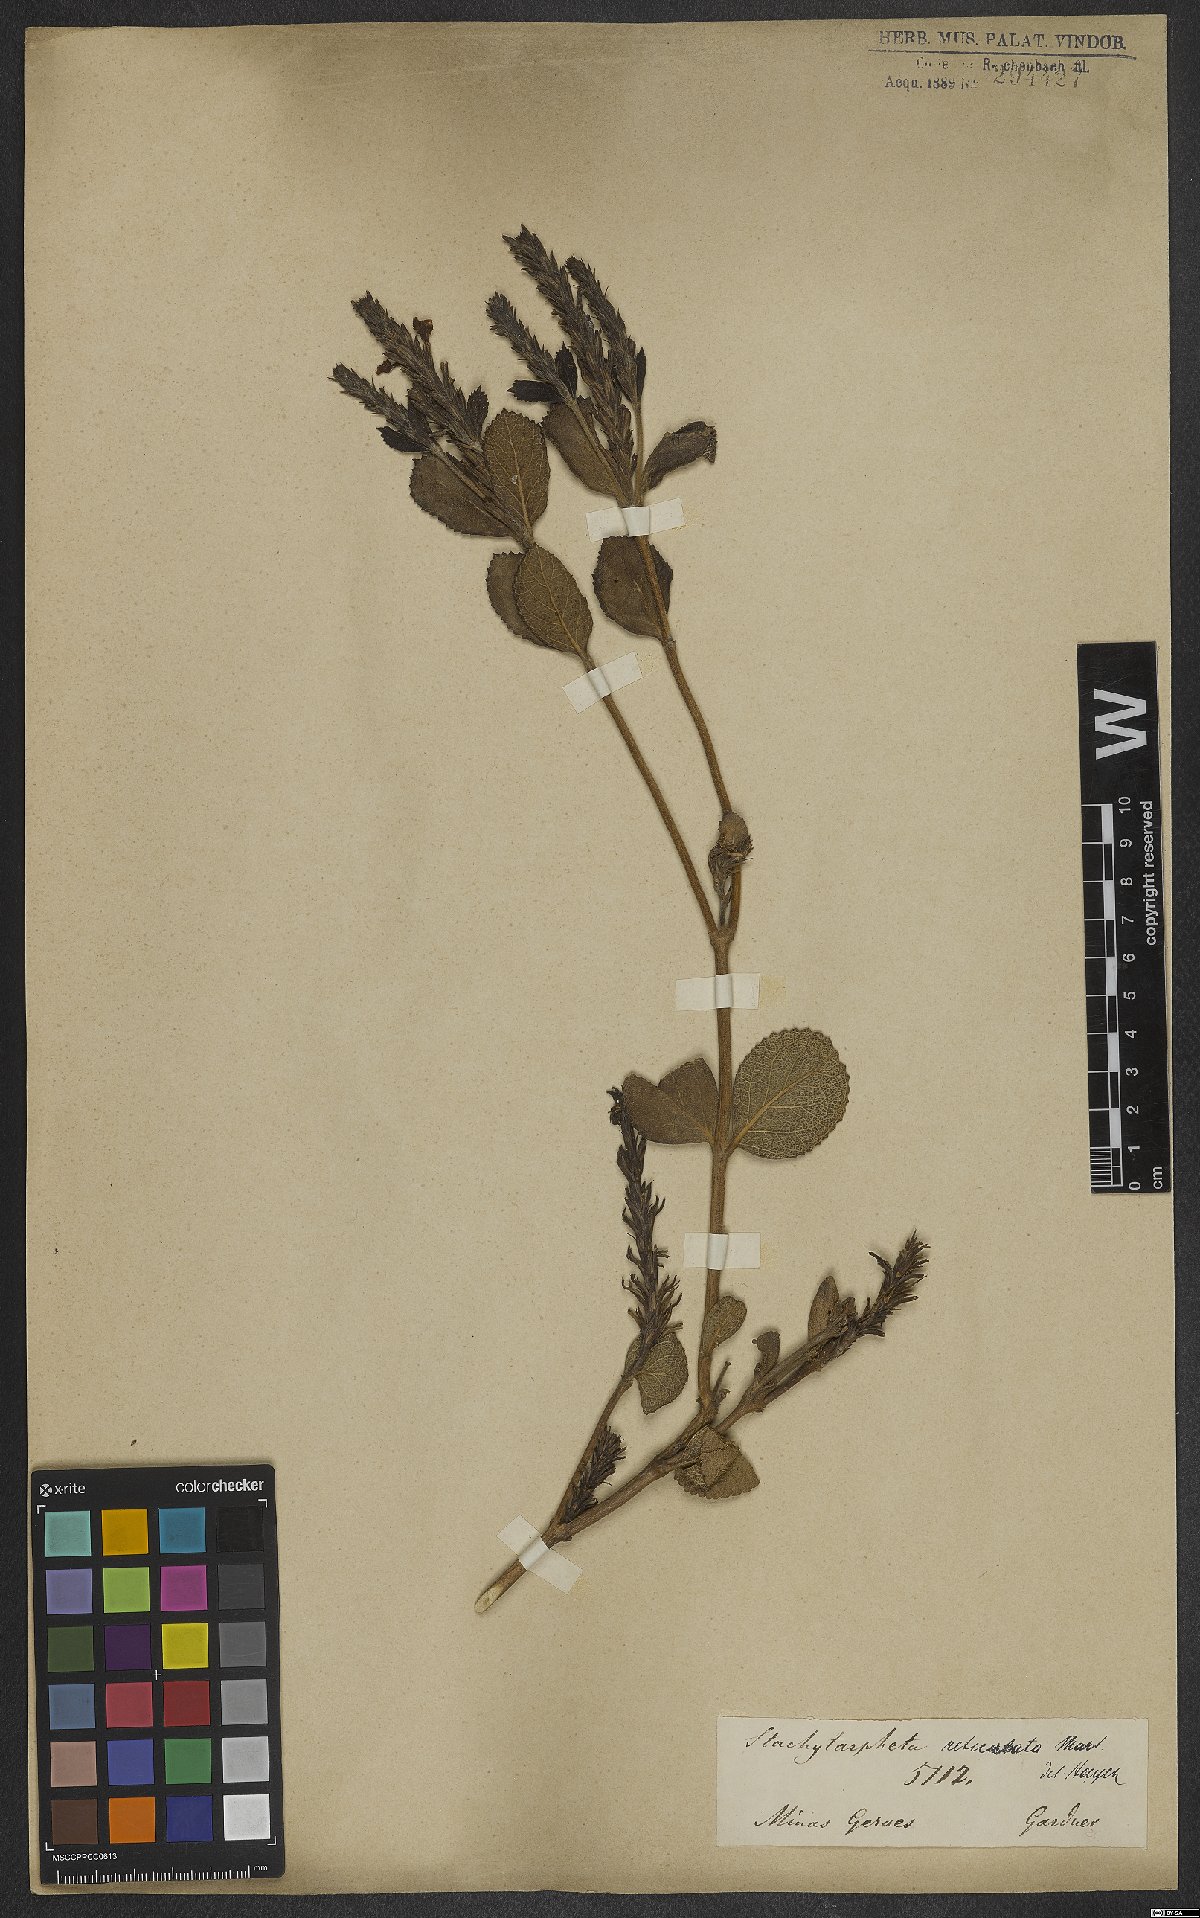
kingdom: Plantae
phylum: Tracheophyta
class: Magnoliopsida
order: Lamiales
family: Verbenaceae
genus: Stachytarpheta
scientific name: Stachytarpheta reticulata
